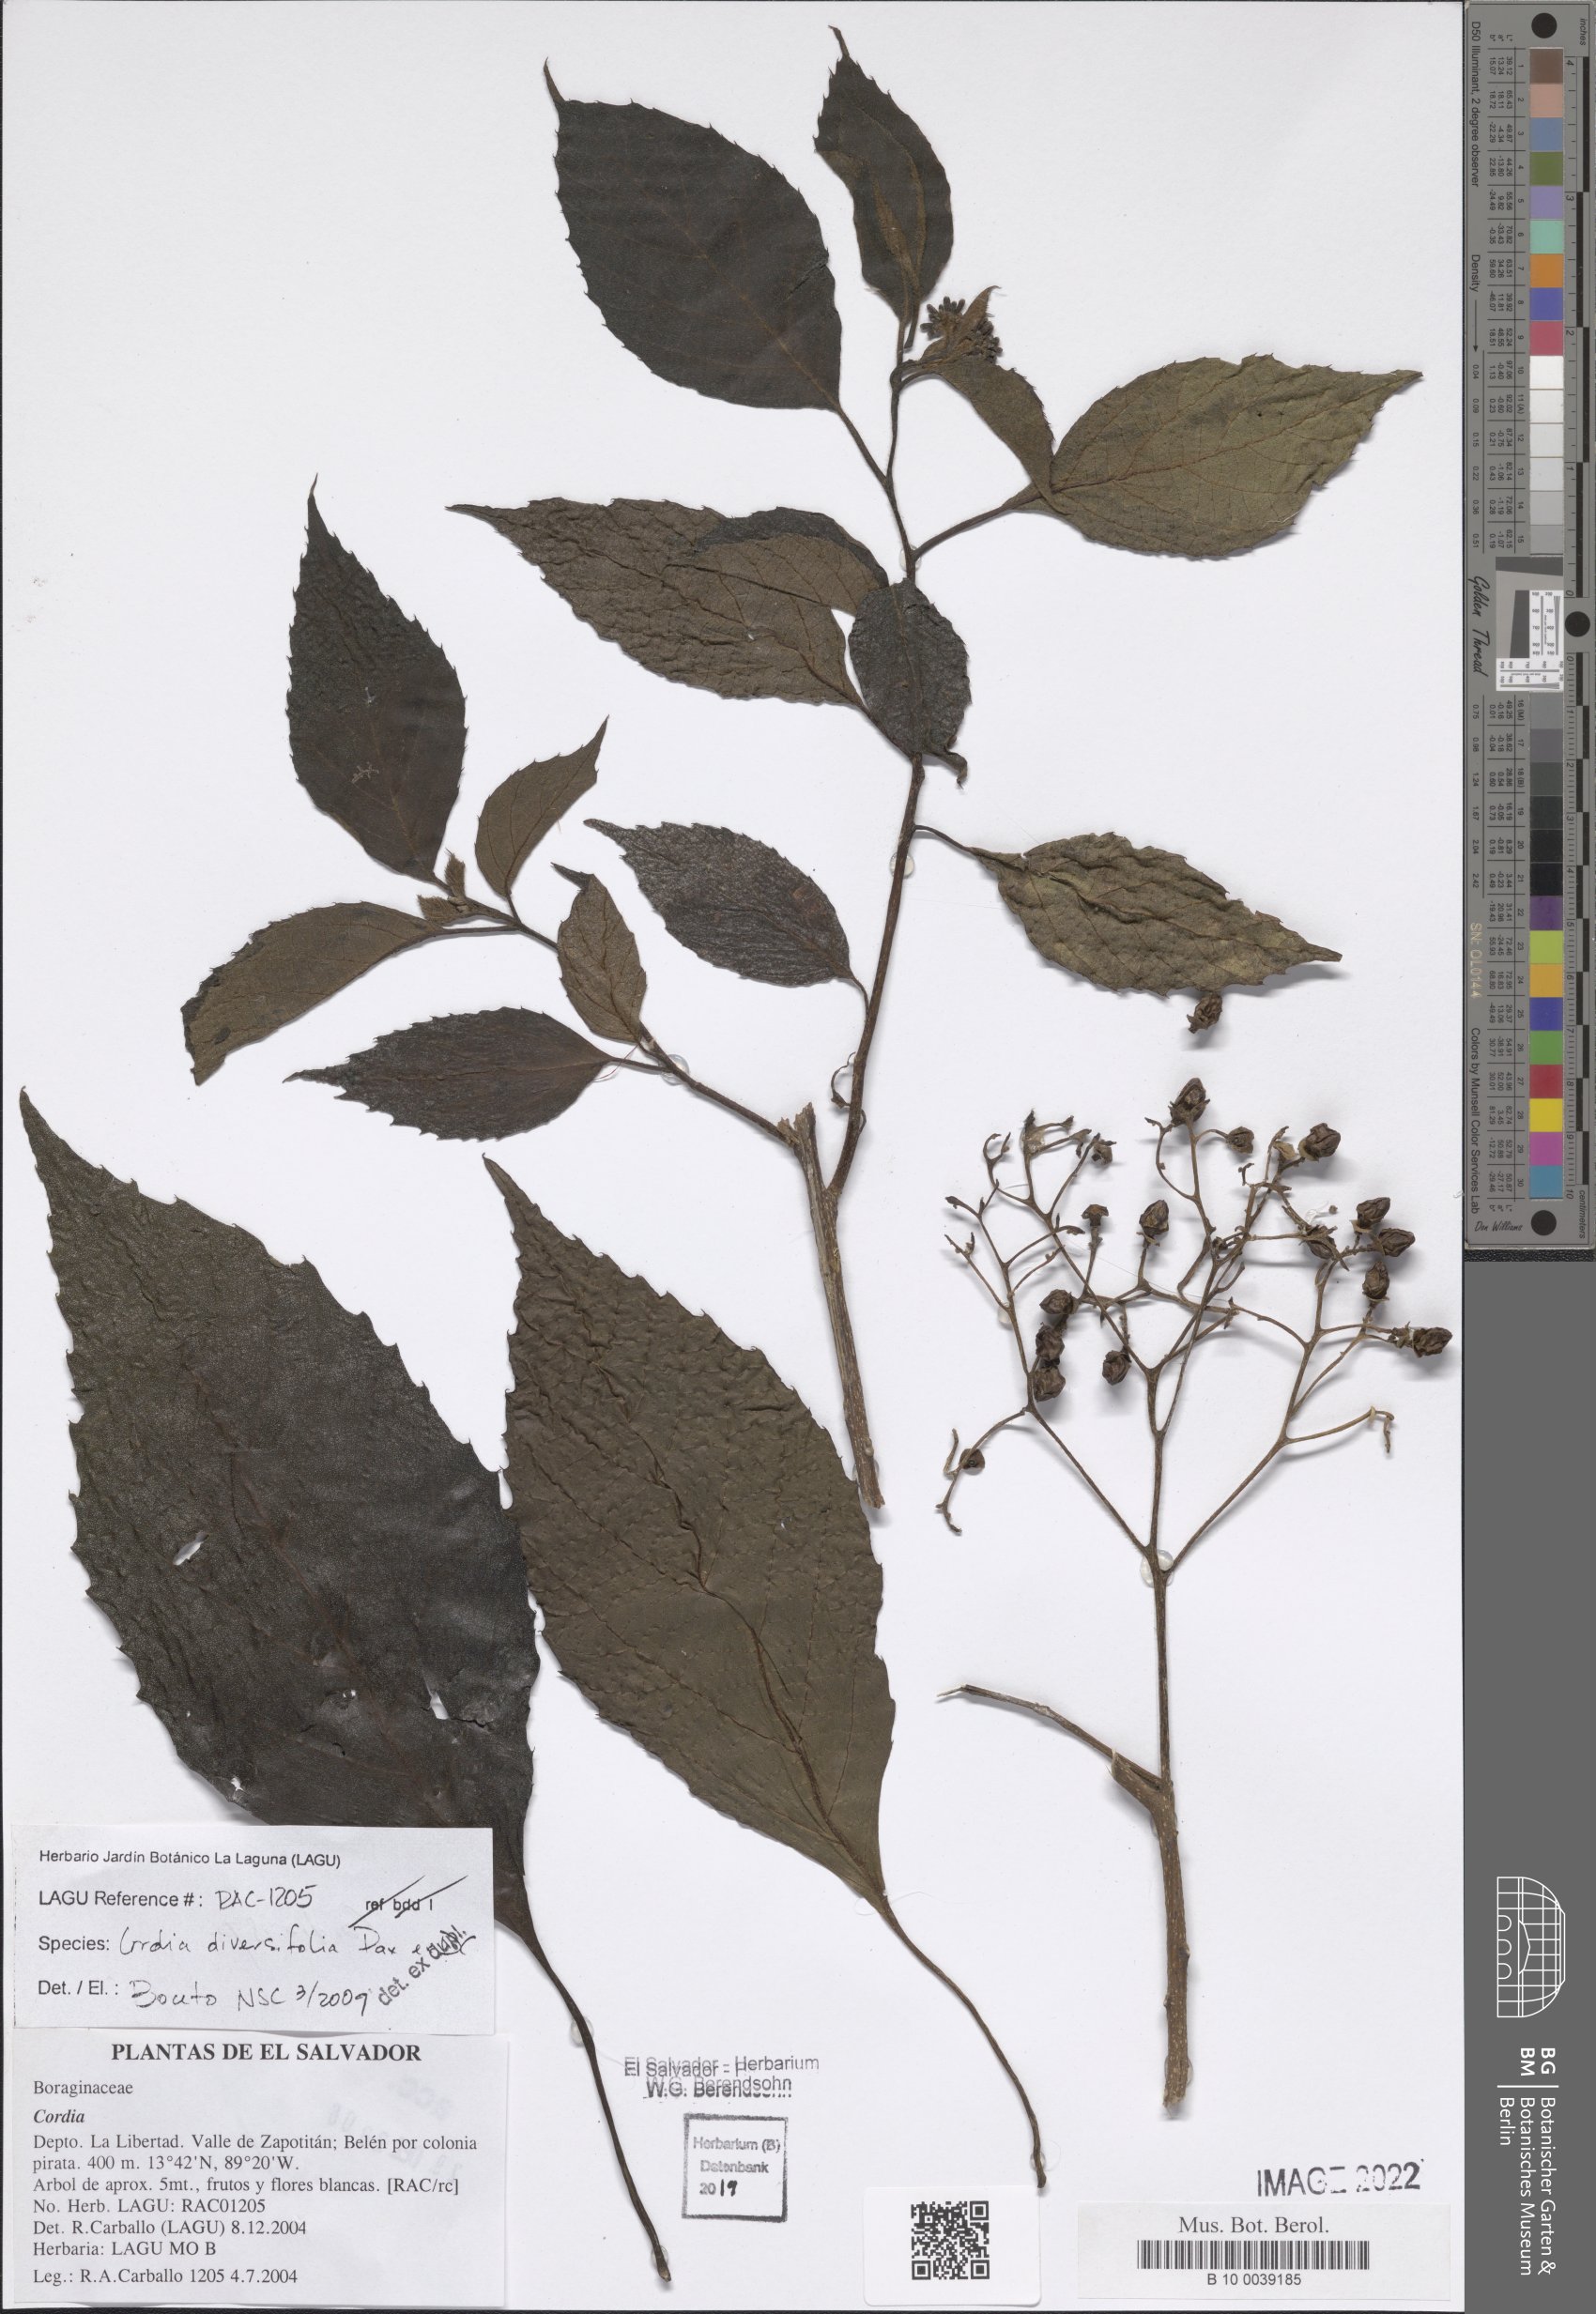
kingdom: Plantae
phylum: Tracheophyta
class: Magnoliopsida
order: Boraginales
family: Cordiaceae
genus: Cordia
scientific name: Cordia diversifolia
